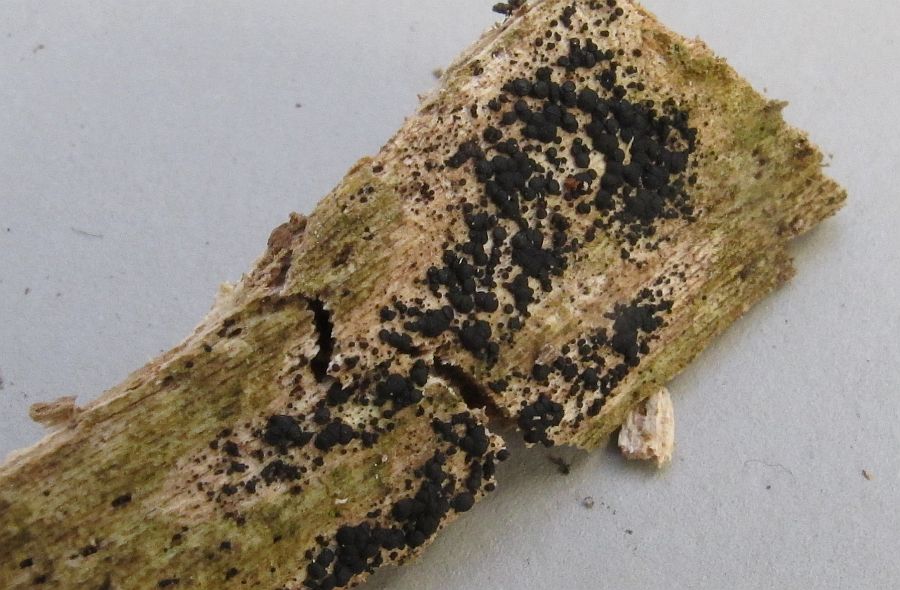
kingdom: Fungi
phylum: Ascomycota
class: Leotiomycetes
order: Helotiales
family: Helotiaceae
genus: Claussenomyces
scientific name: Claussenomyces
